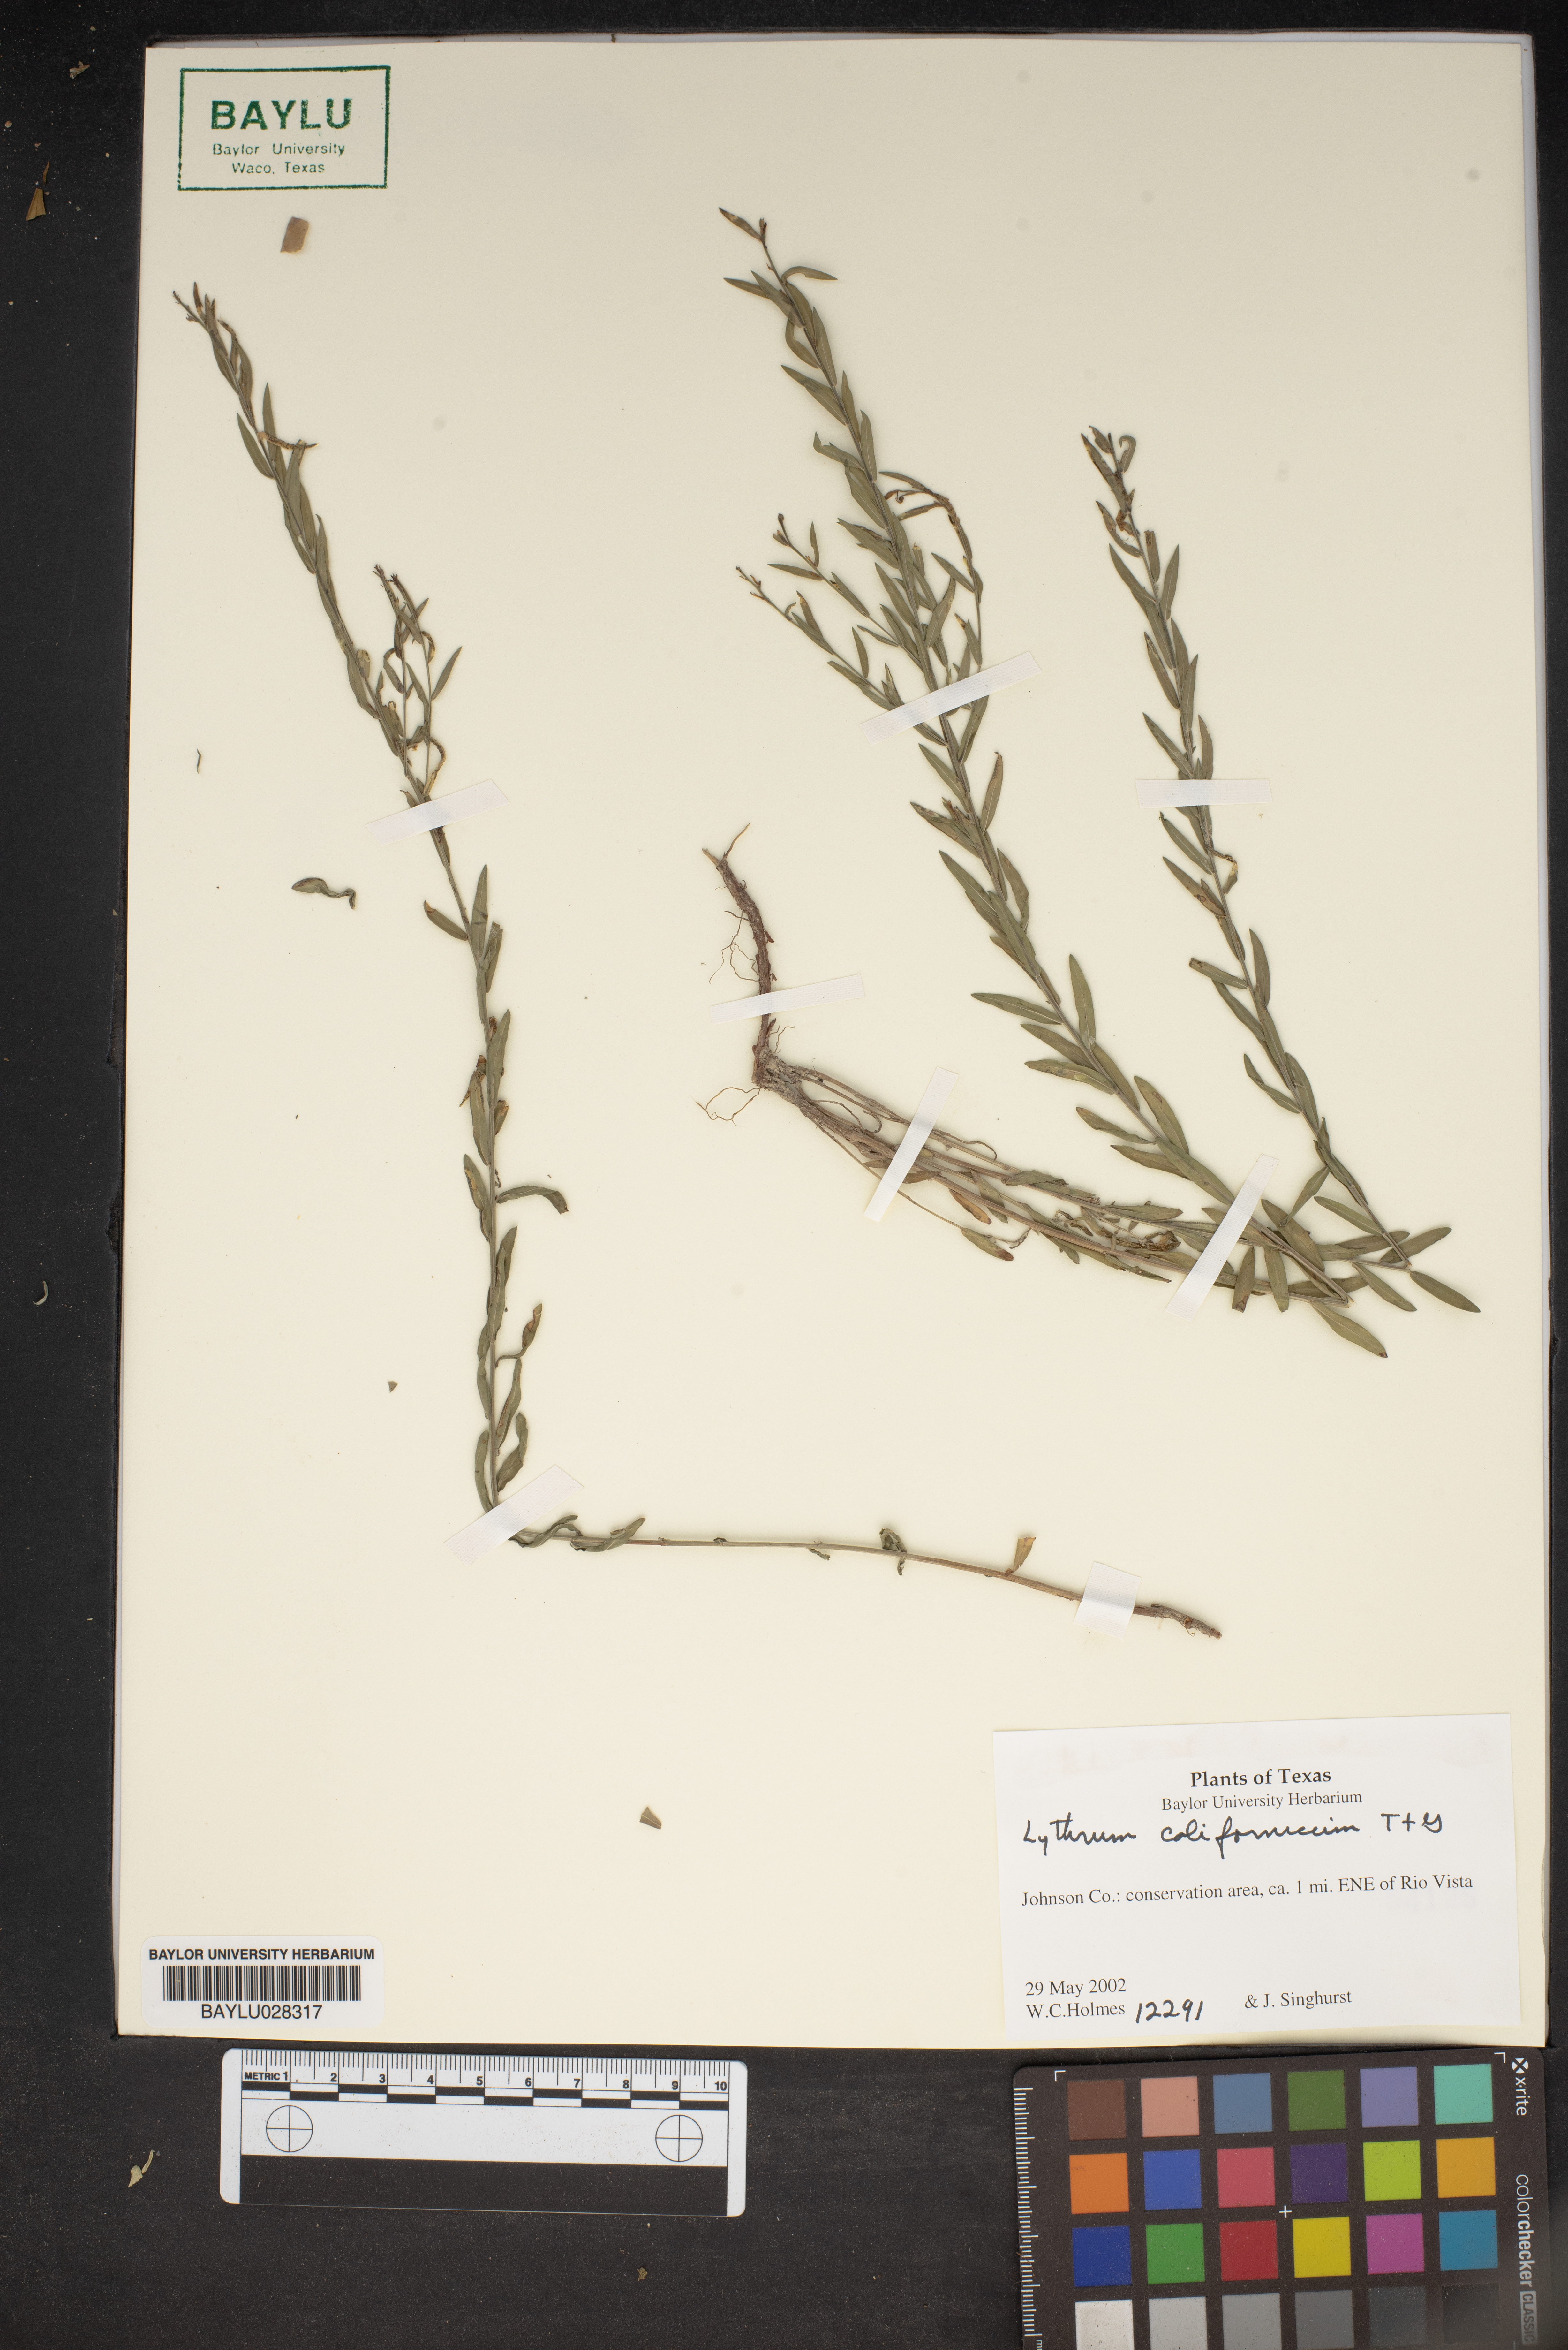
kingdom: Plantae
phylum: Tracheophyta
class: Magnoliopsida
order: Myrtales
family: Lythraceae
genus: Lythrum
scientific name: Lythrum californicum
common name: California loosestrife
